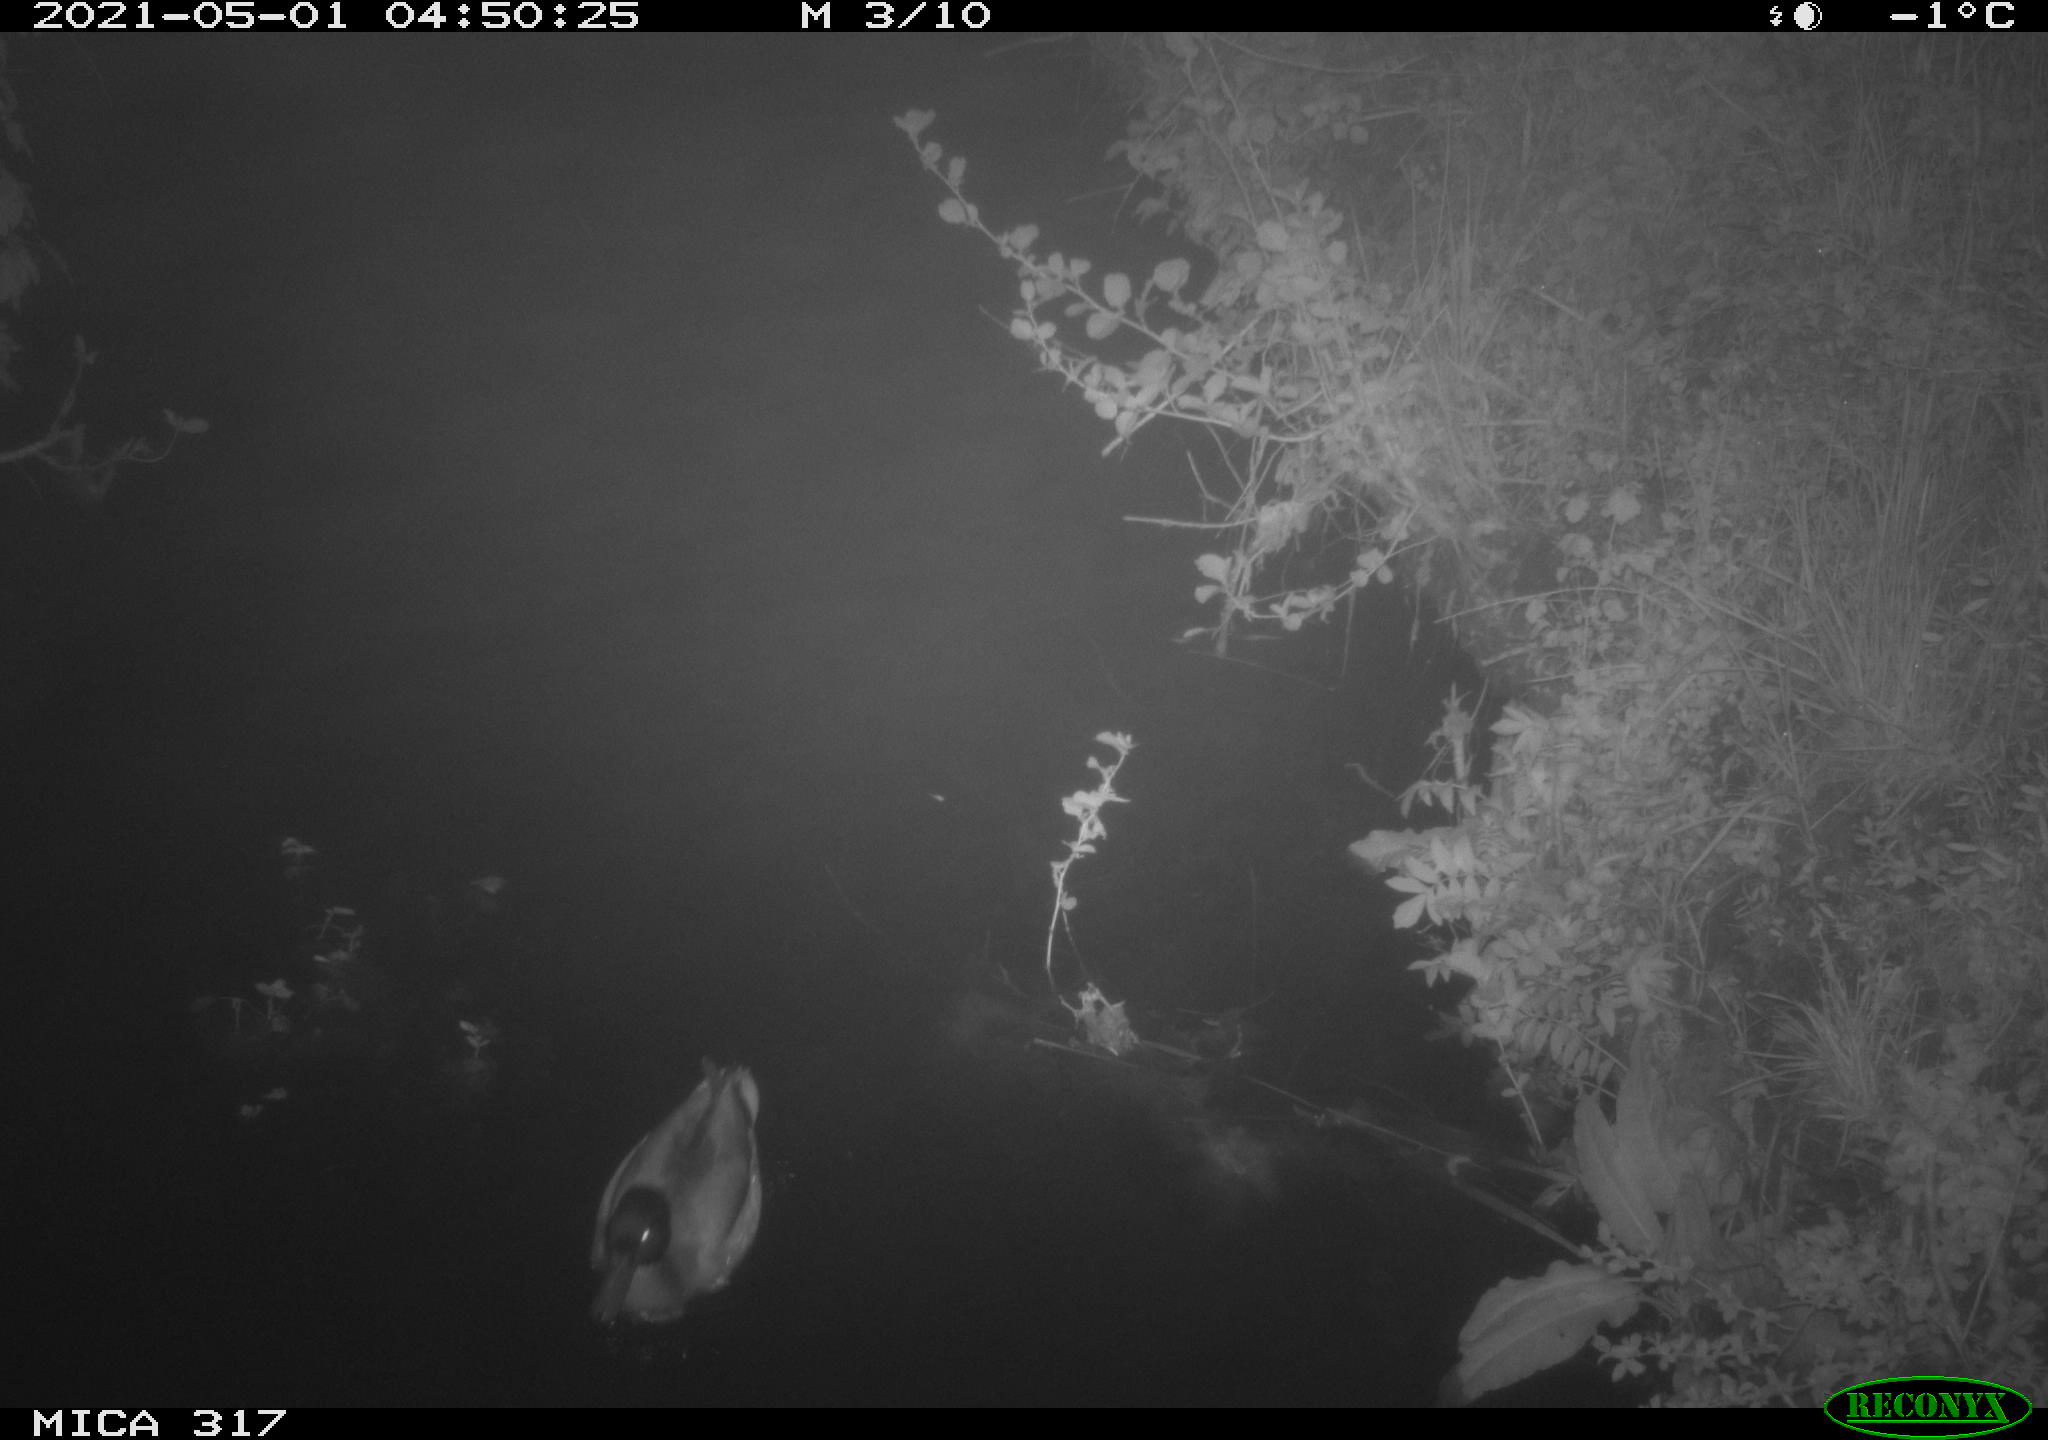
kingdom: Animalia
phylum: Chordata
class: Aves
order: Anseriformes
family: Anatidae
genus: Anas
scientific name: Anas
